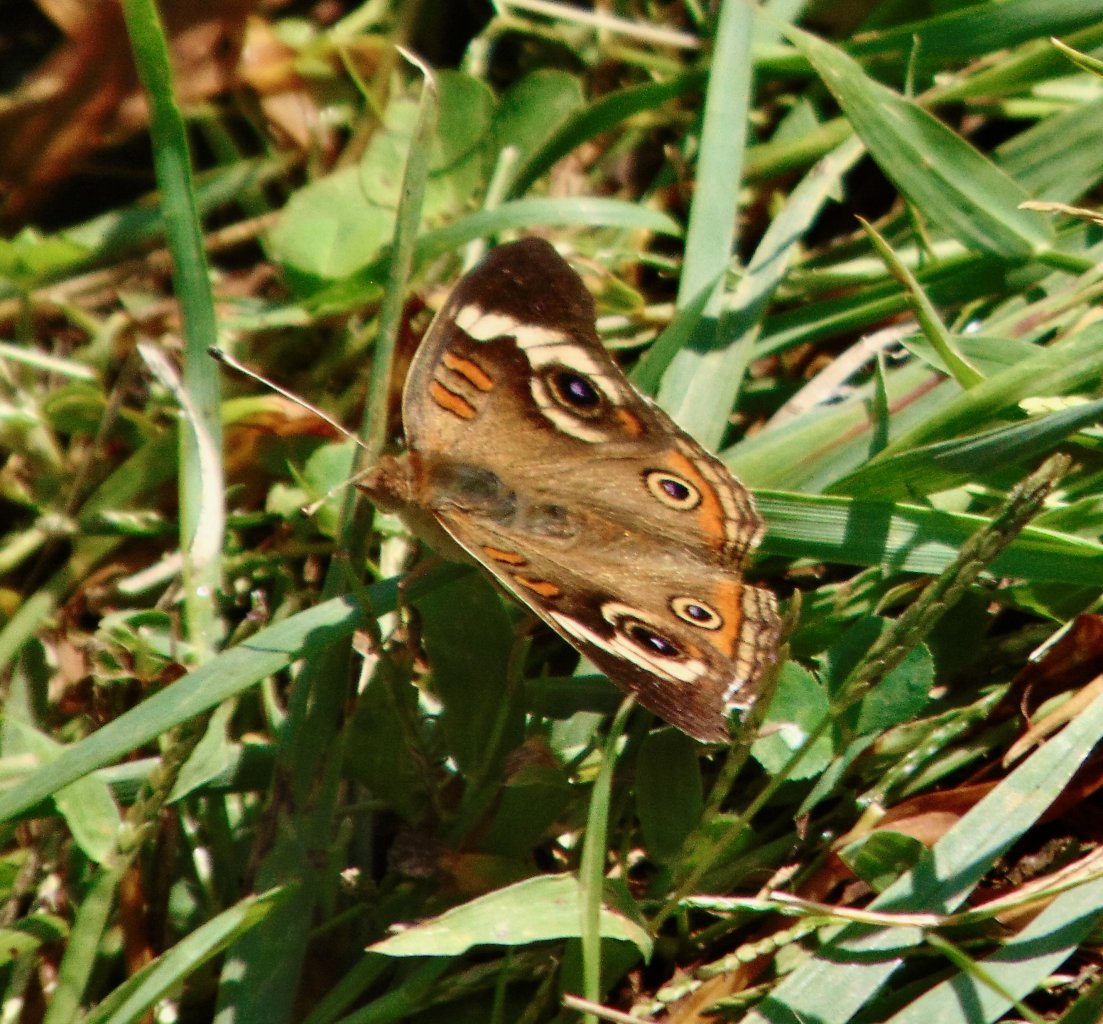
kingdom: Animalia
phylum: Arthropoda
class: Insecta
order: Lepidoptera
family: Nymphalidae
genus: Junonia
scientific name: Junonia coenia
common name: Common Buckeye
